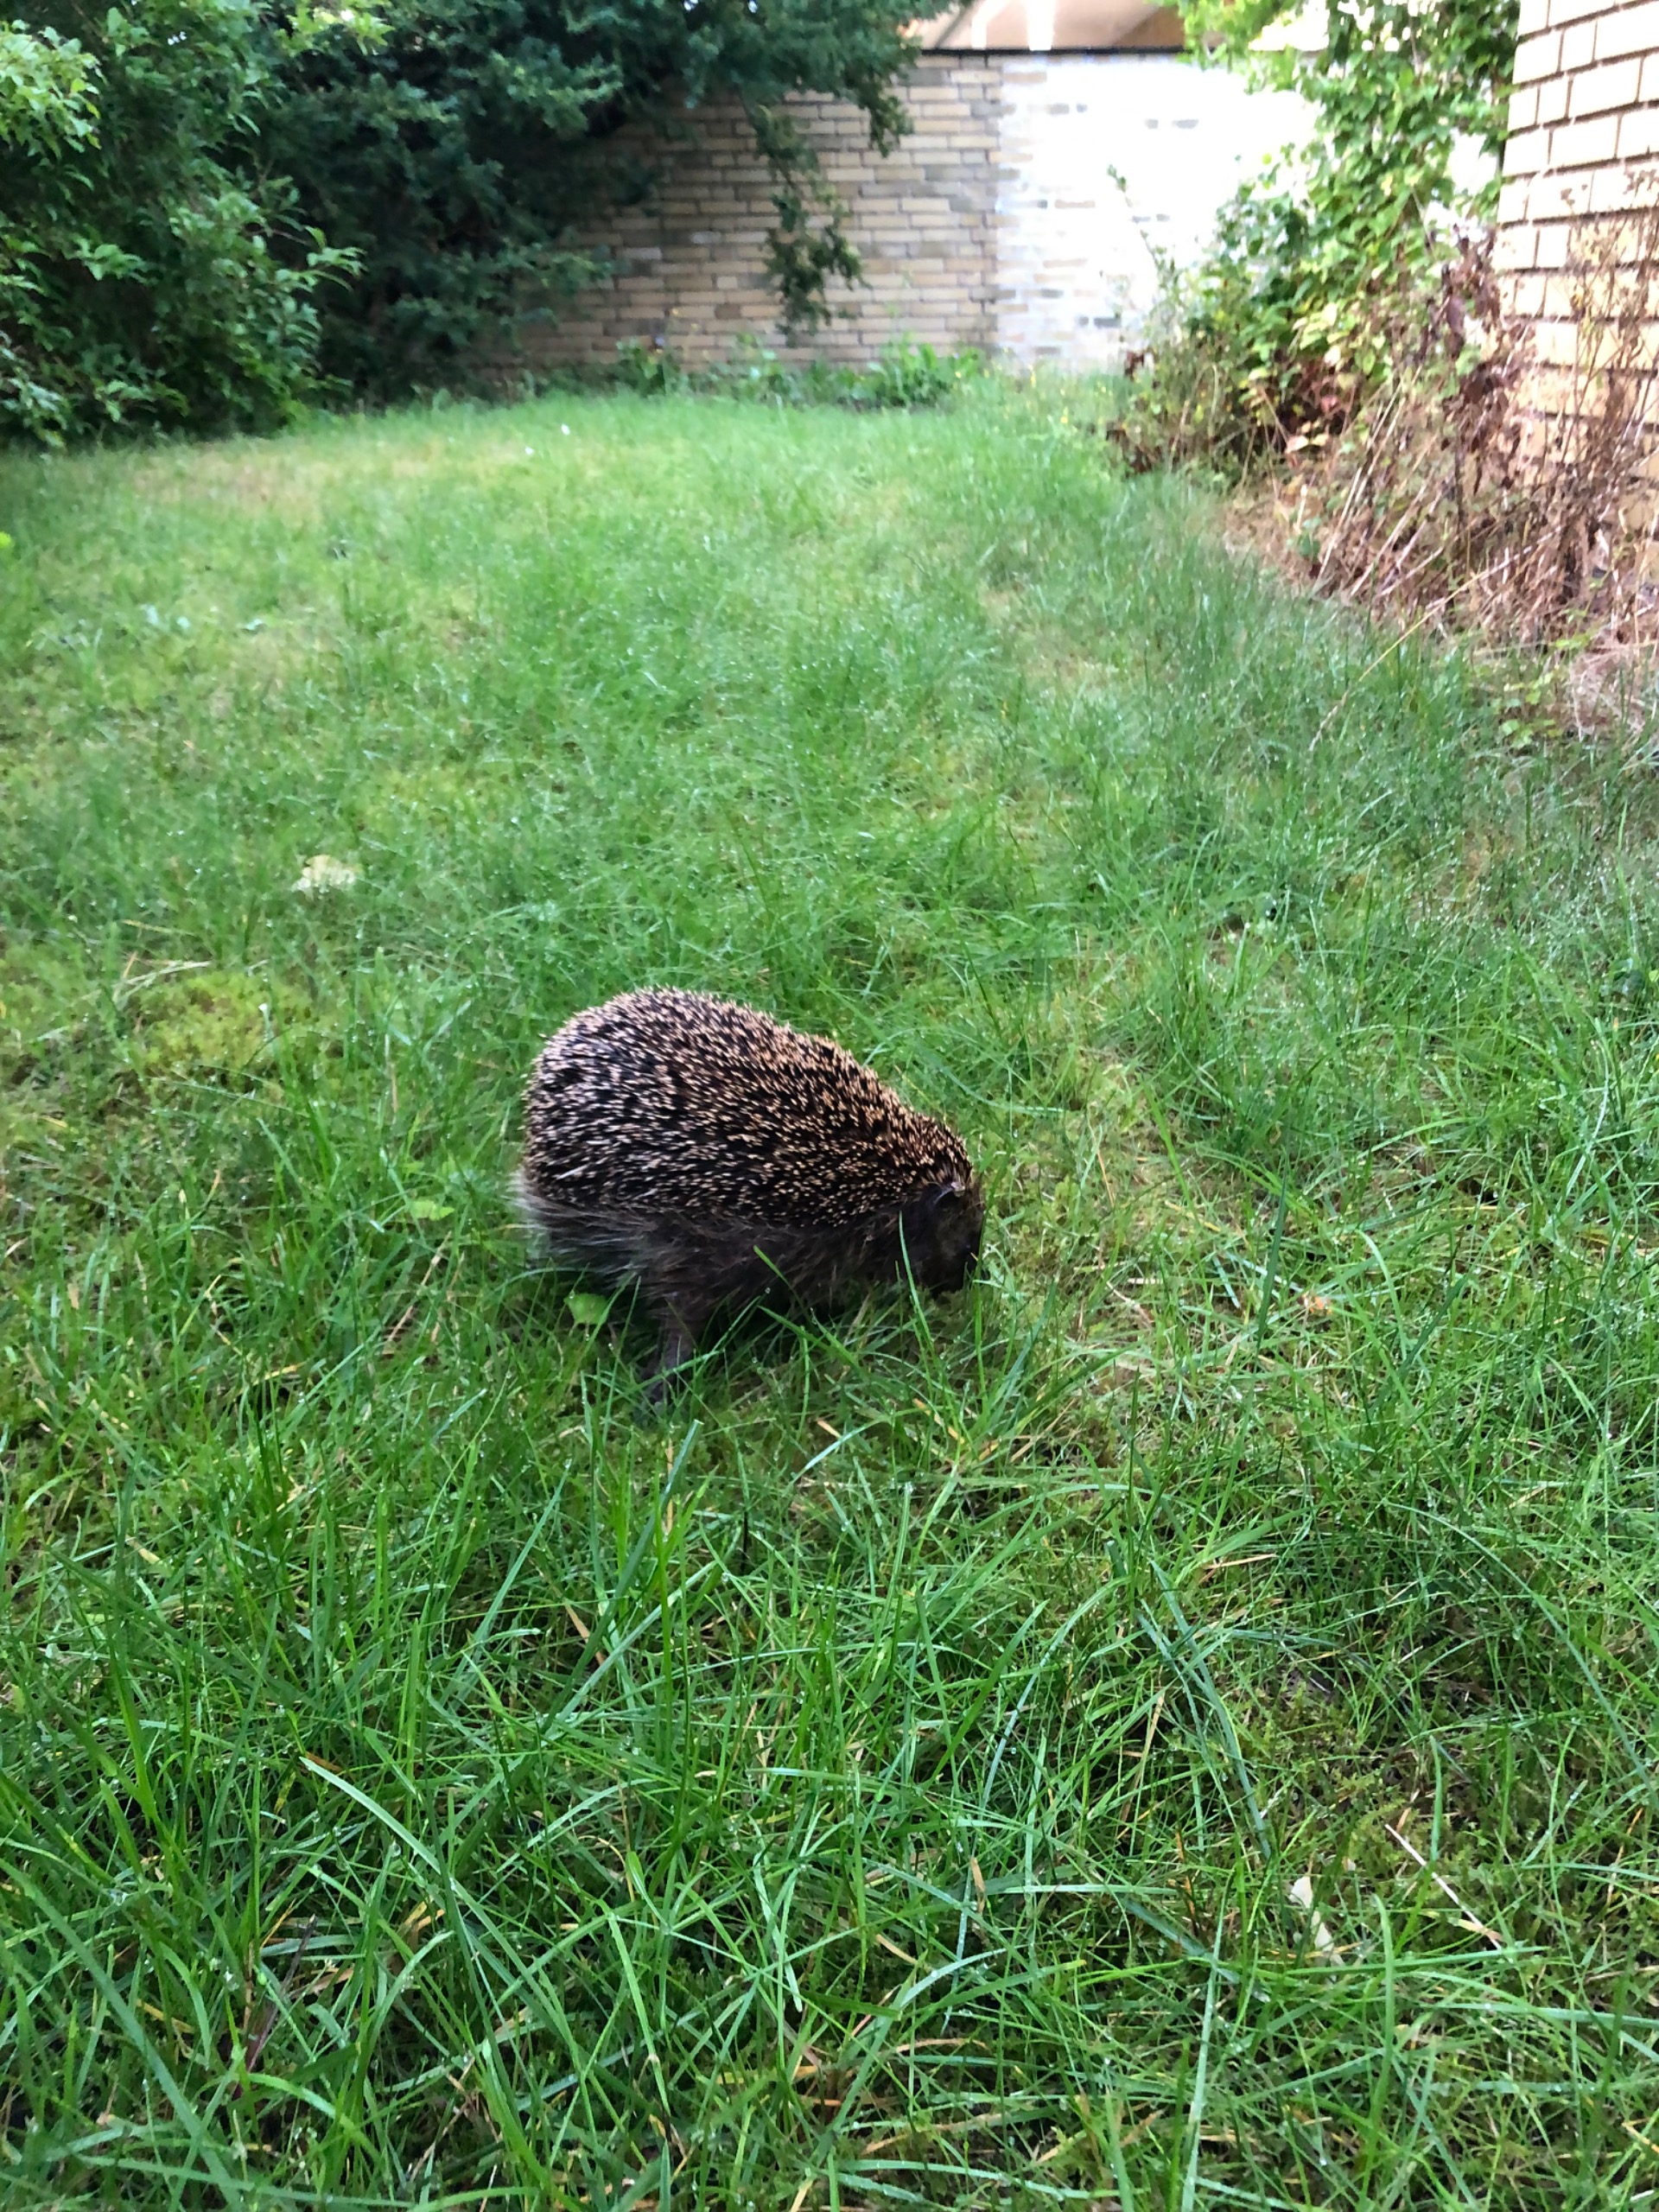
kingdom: Animalia
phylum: Chordata
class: Mammalia
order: Erinaceomorpha
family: Erinaceidae
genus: Erinaceus
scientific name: Erinaceus europaeus
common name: Pindsvin
